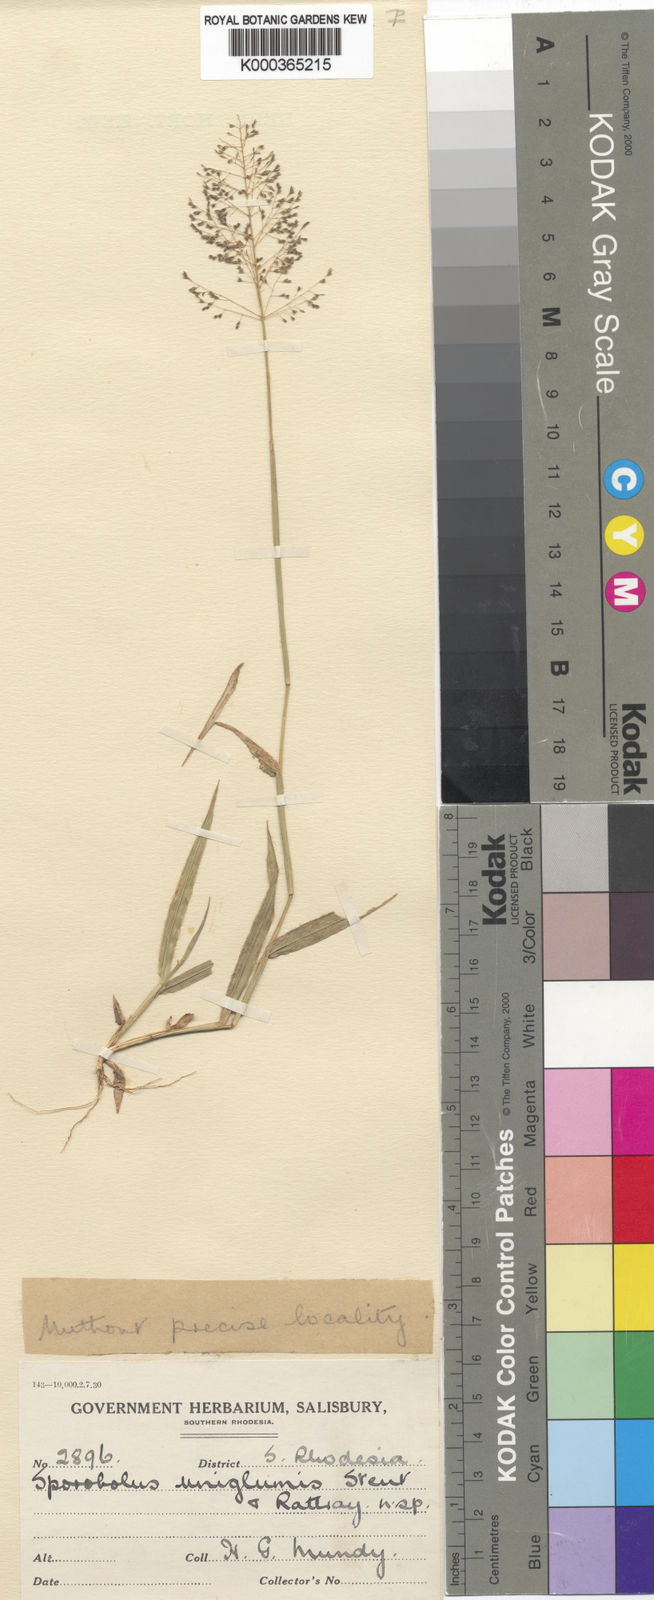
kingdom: Plantae
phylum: Tracheophyta
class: Liliopsida
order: Poales
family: Poaceae
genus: Sporobolus
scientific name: Sporobolus uniglumis
